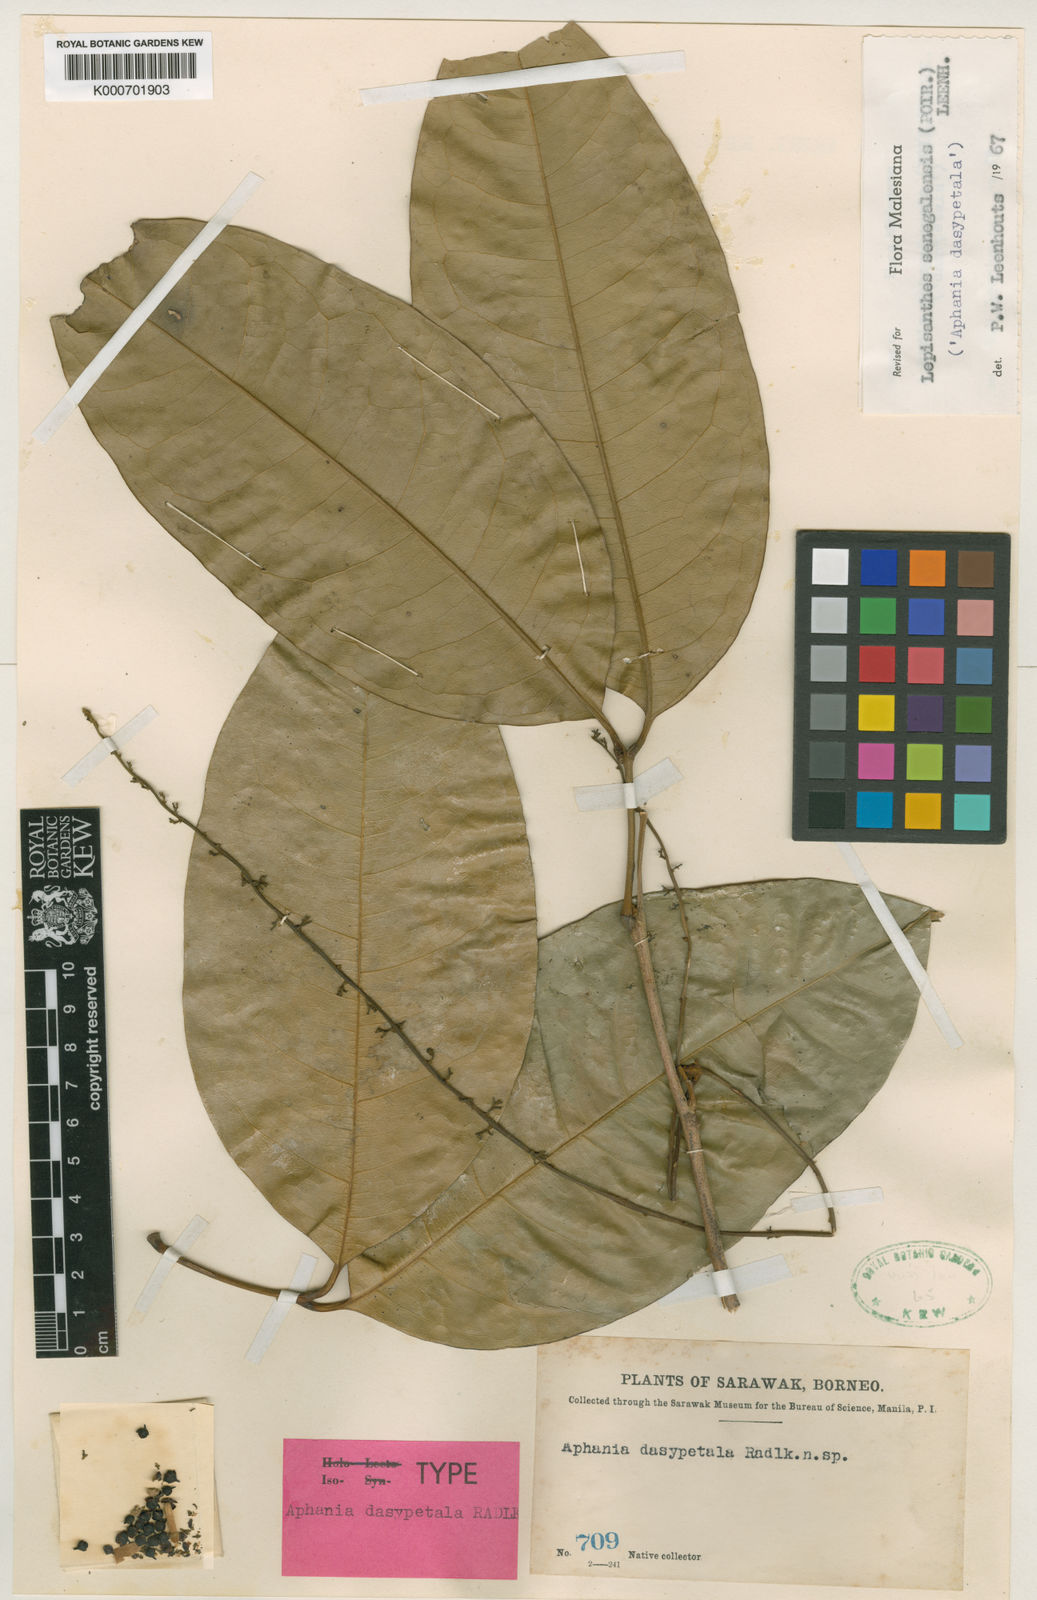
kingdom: Plantae
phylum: Tracheophyta
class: Magnoliopsida
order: Sapindales
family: Sapindaceae
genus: Lepisanthes
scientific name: Lepisanthes senegalensis
